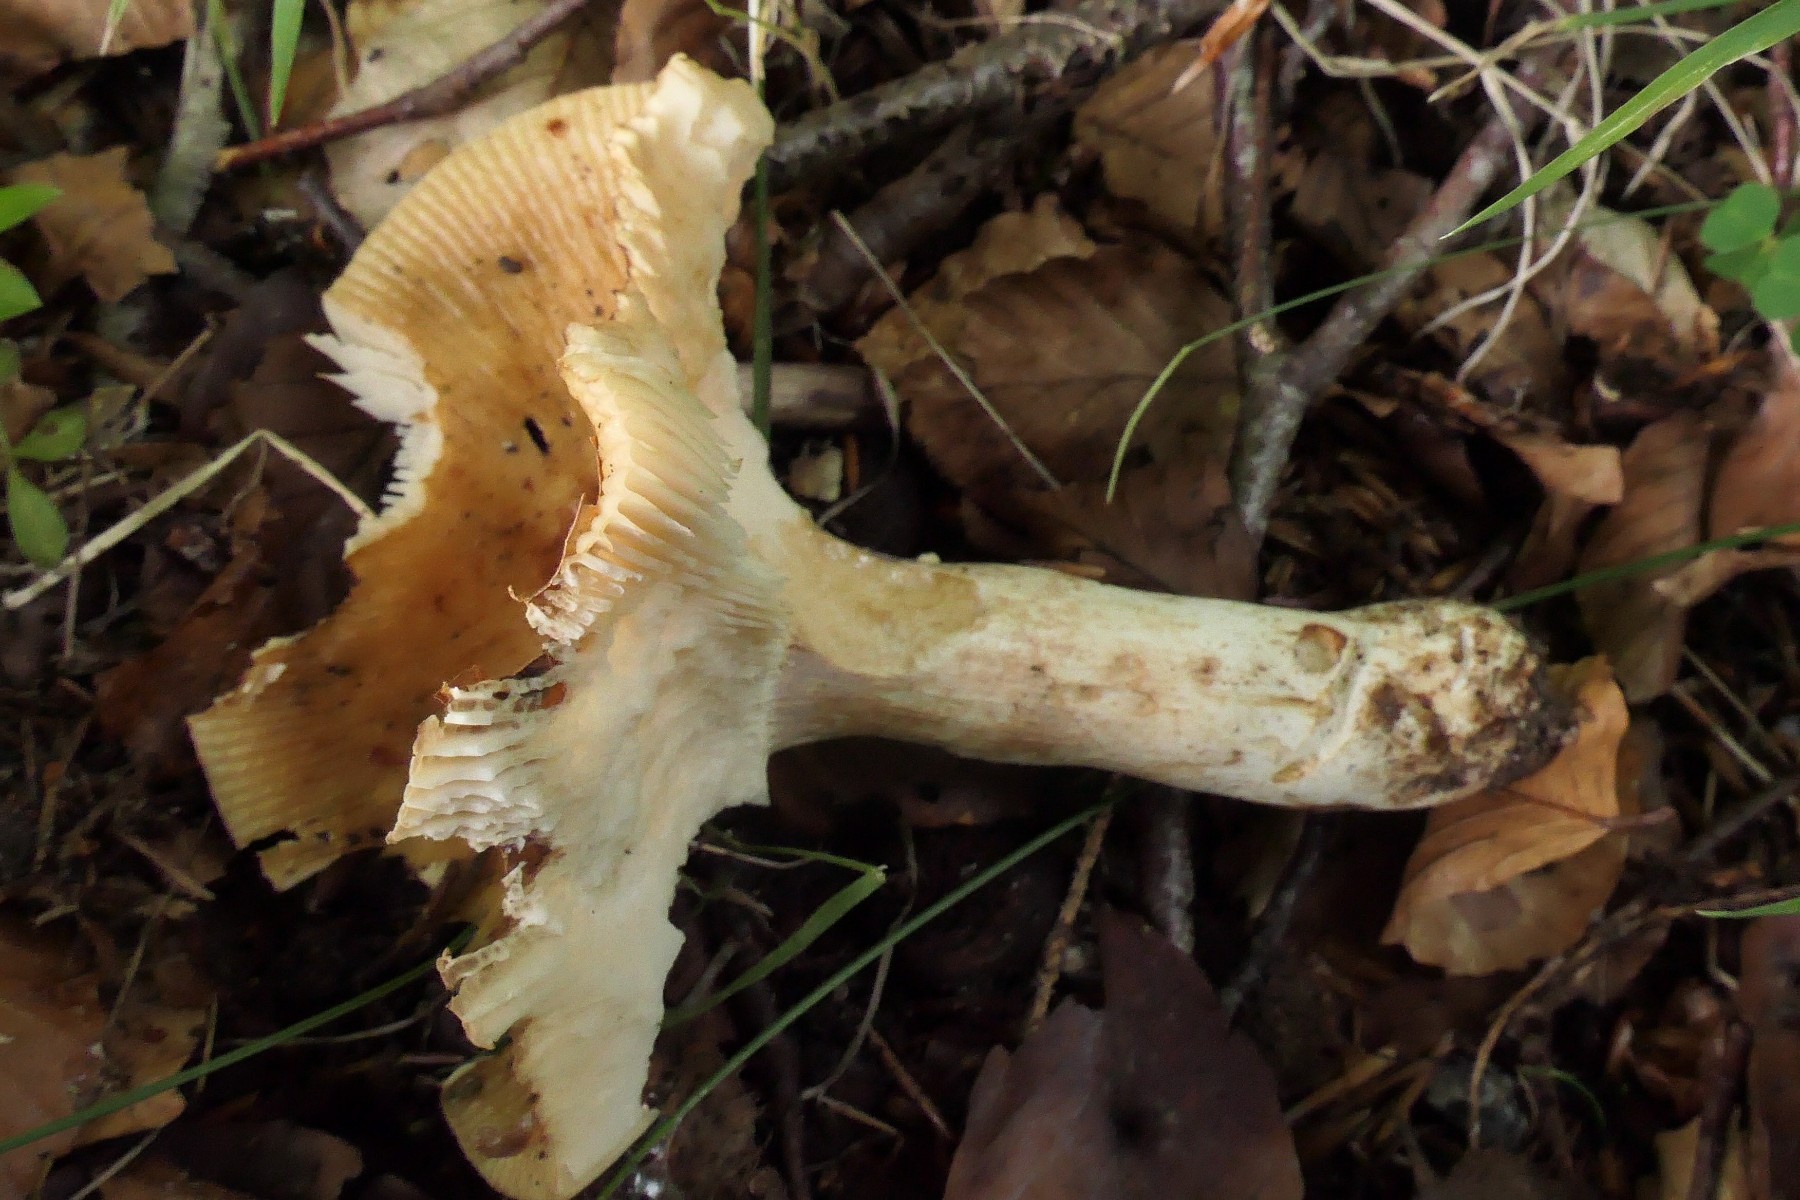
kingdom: Fungi
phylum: Basidiomycota
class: Agaricomycetes
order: Russulales
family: Russulaceae
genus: Russula
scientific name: Russula grata
